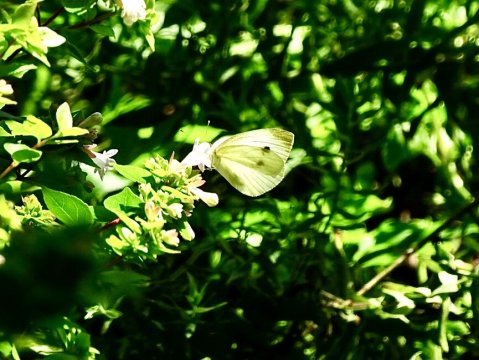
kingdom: Animalia
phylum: Arthropoda
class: Insecta
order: Lepidoptera
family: Pieridae
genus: Pieris
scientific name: Pieris rapae
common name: Cabbage White
